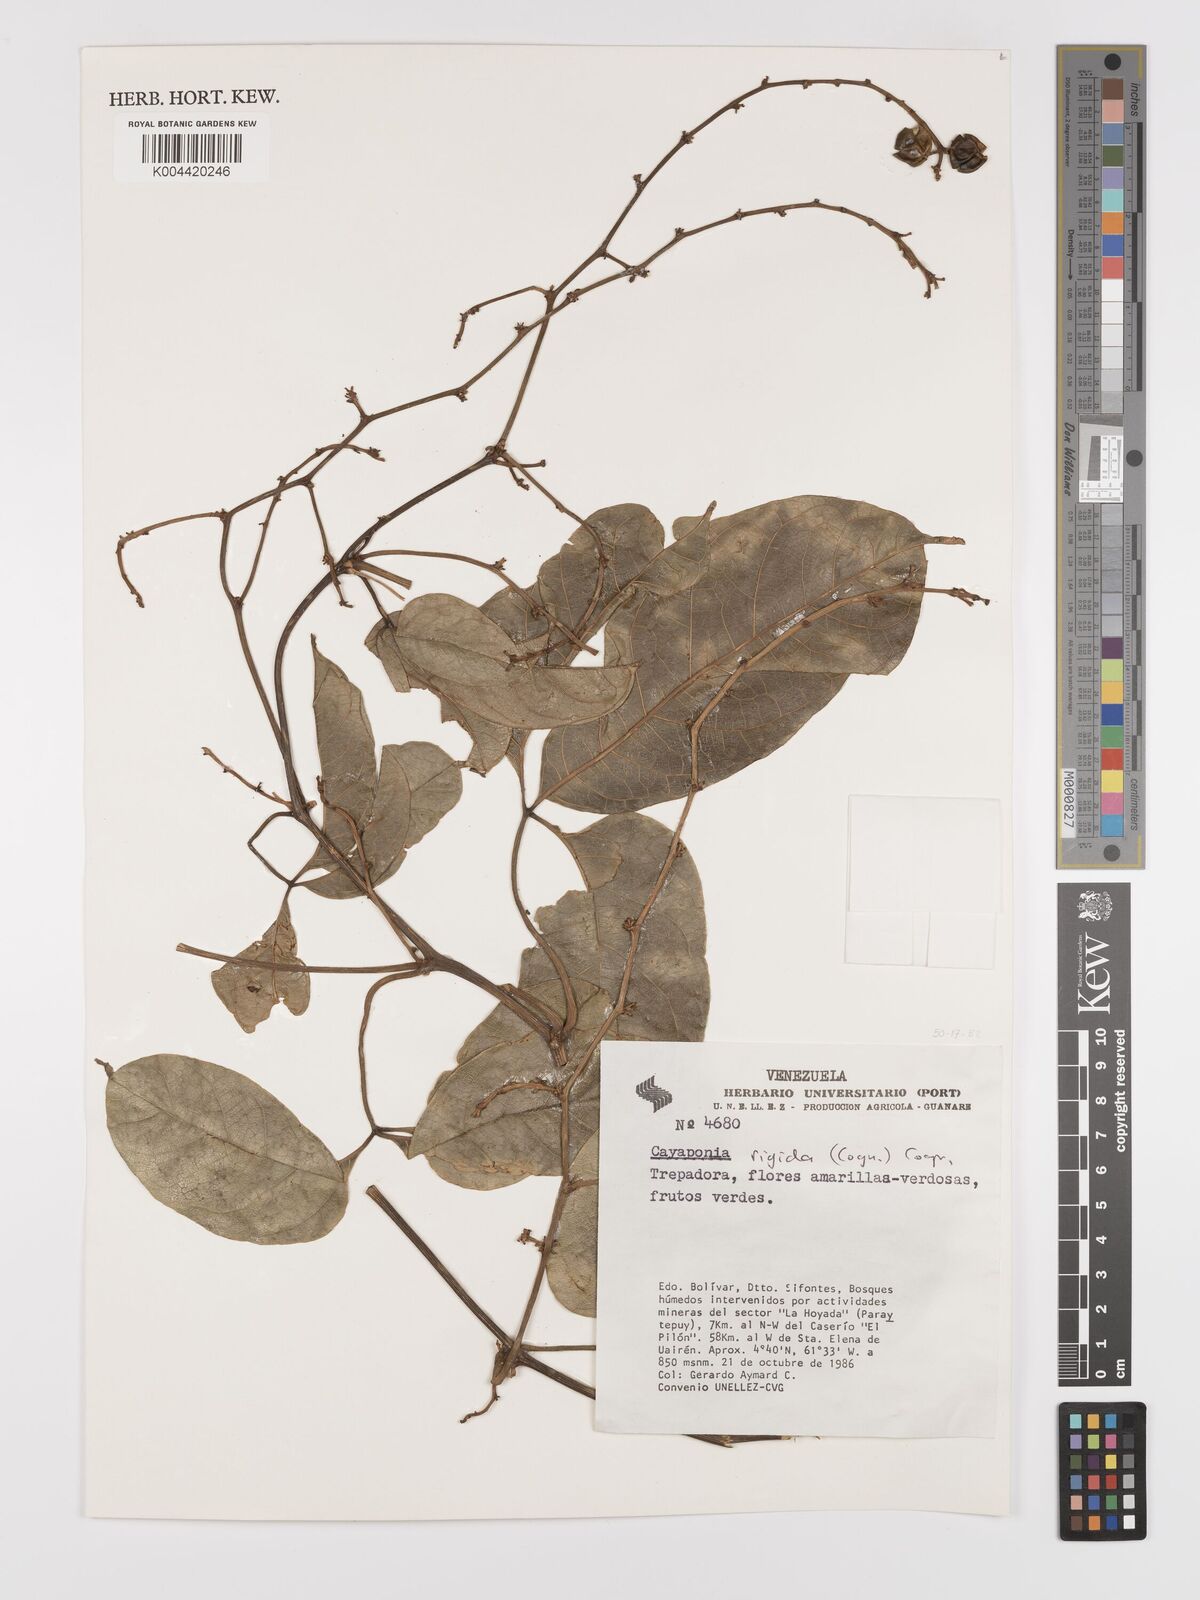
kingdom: Plantae
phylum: Tracheophyta
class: Magnoliopsida
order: Cucurbitales
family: Cucurbitaceae
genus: Cayaponia
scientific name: Cayaponia rigida
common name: Boskomkommer
